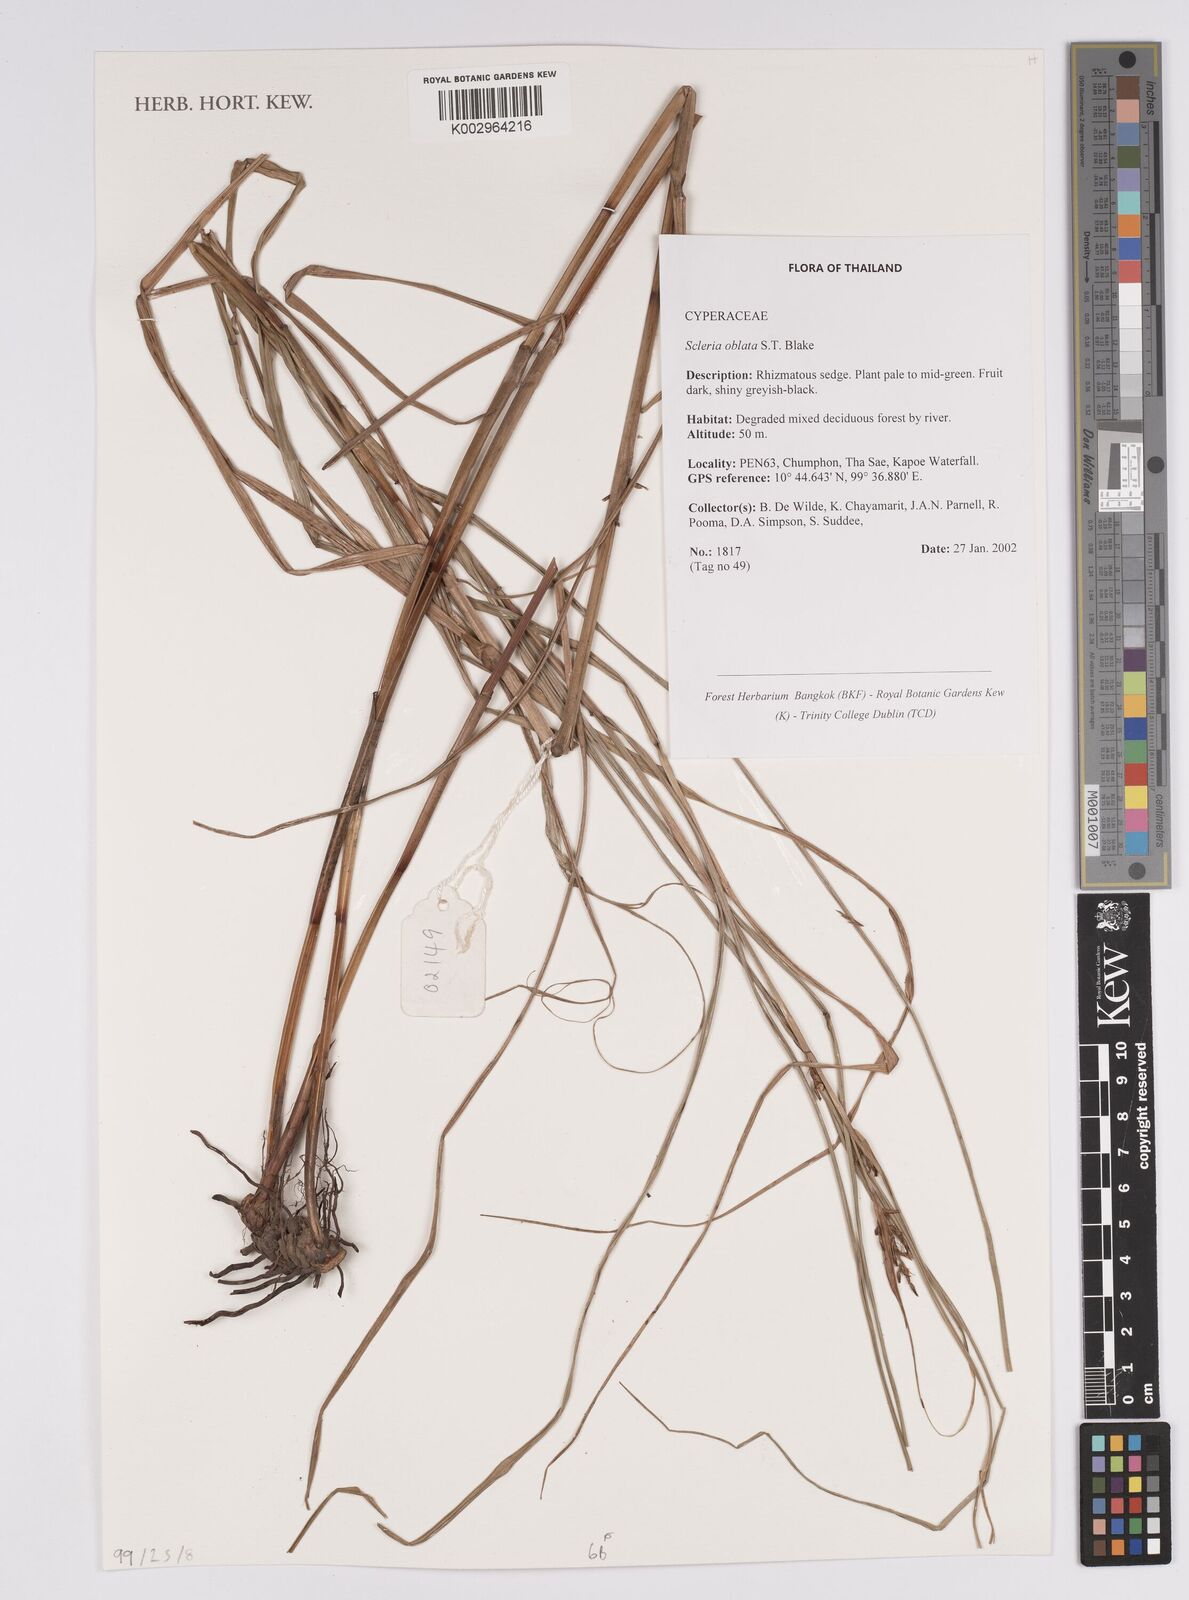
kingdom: Plantae
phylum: Tracheophyta
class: Liliopsida
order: Poales
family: Cyperaceae
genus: Scleria
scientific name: Scleria oblata
